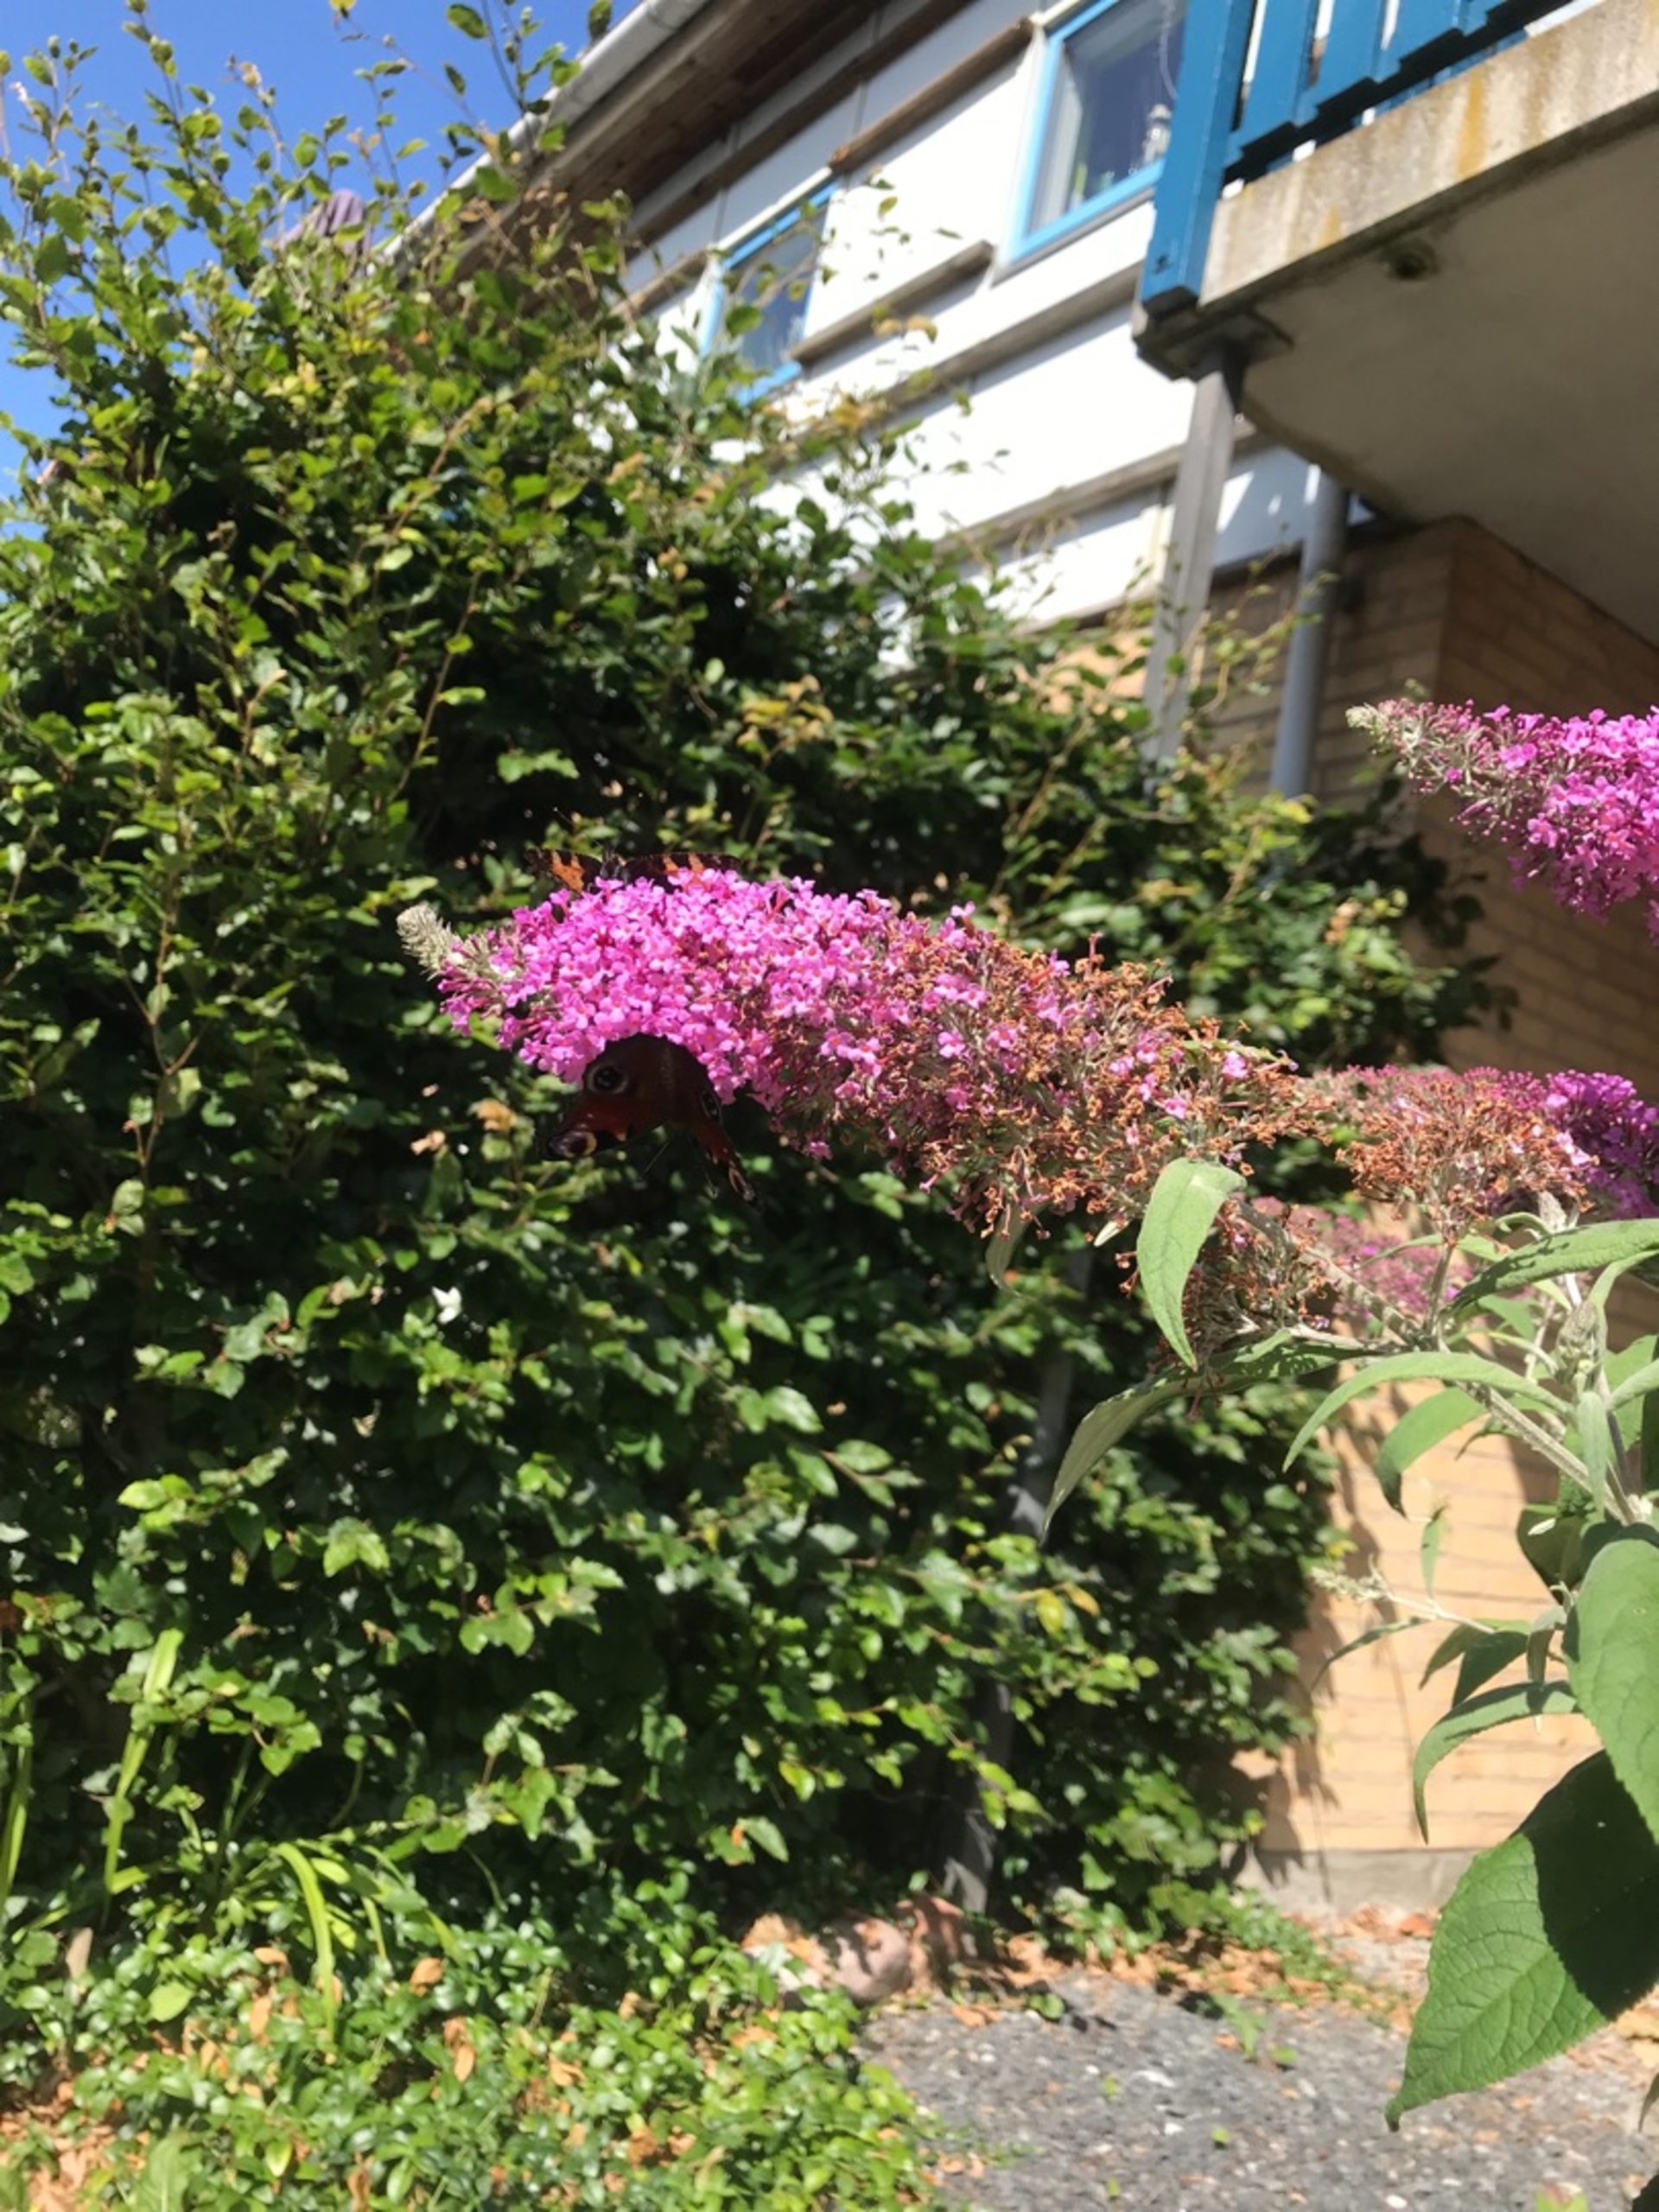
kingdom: Animalia
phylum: Arthropoda
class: Insecta
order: Lepidoptera
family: Nymphalidae
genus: Aglais
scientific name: Aglais io
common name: Dagpåfugleøje
